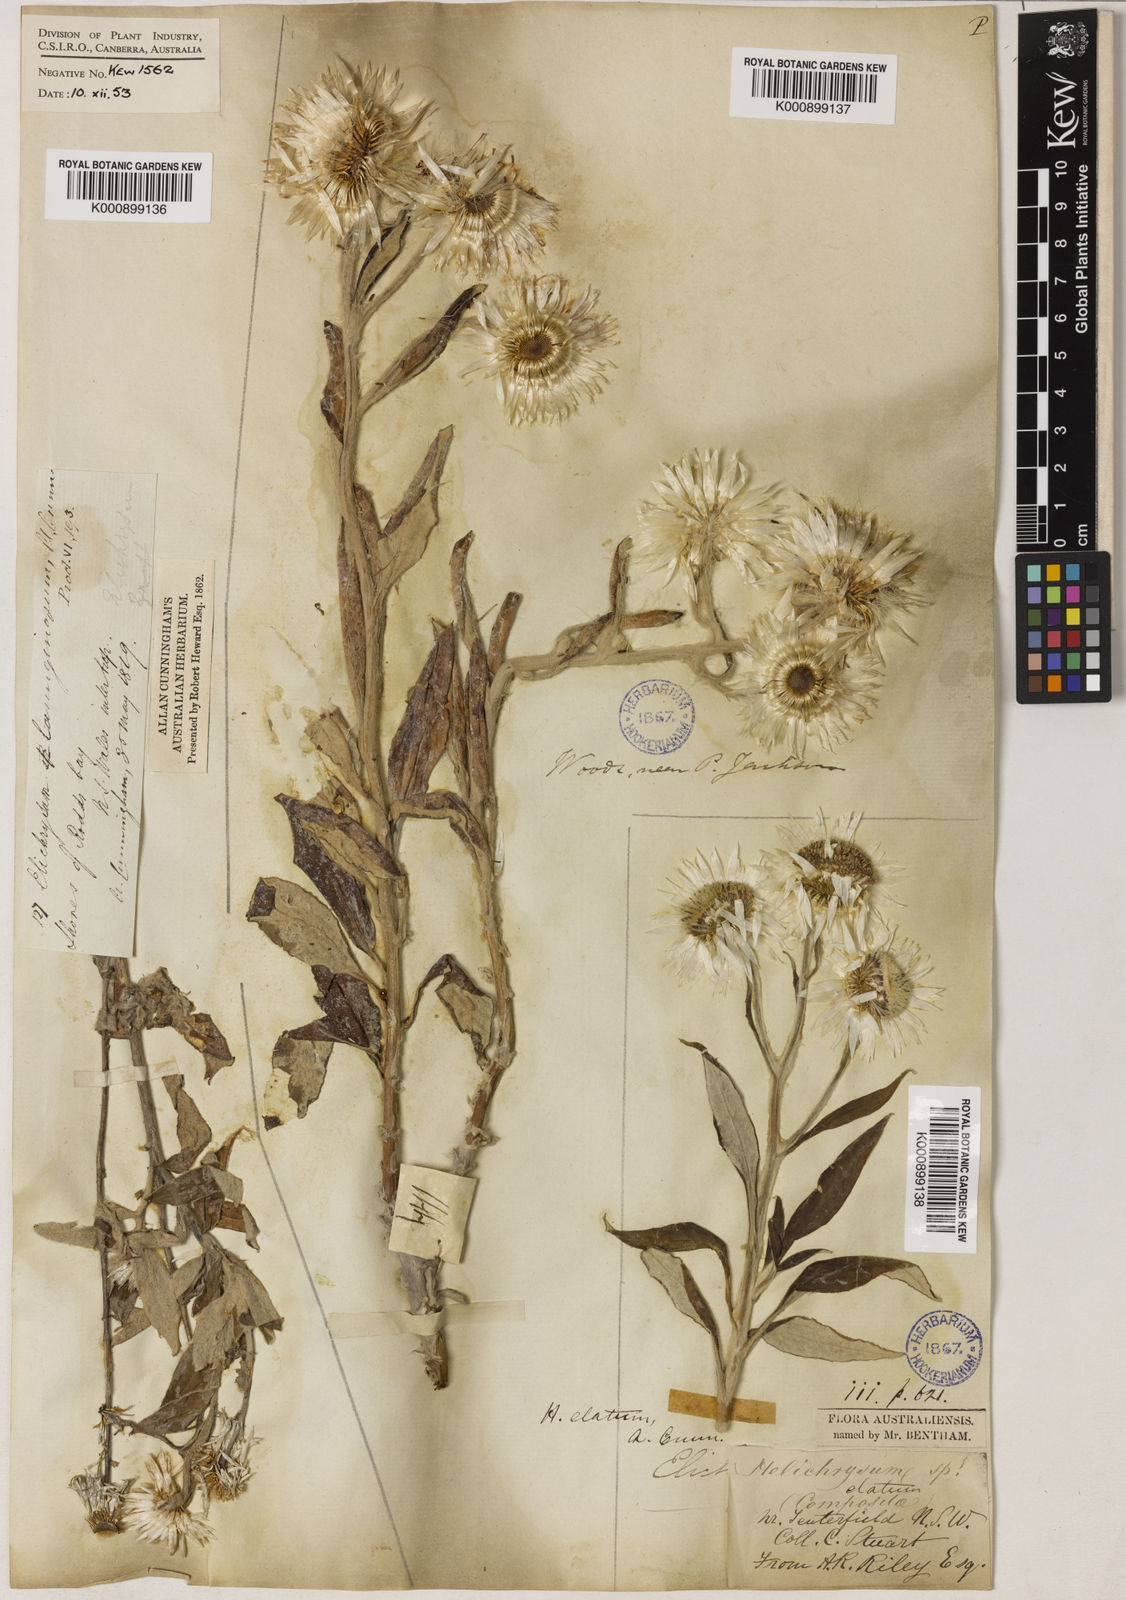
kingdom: Plantae
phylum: Tracheophyta
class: Magnoliopsida
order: Asterales
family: Asteraceae
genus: Leucozoma
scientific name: Leucozoma elatum
